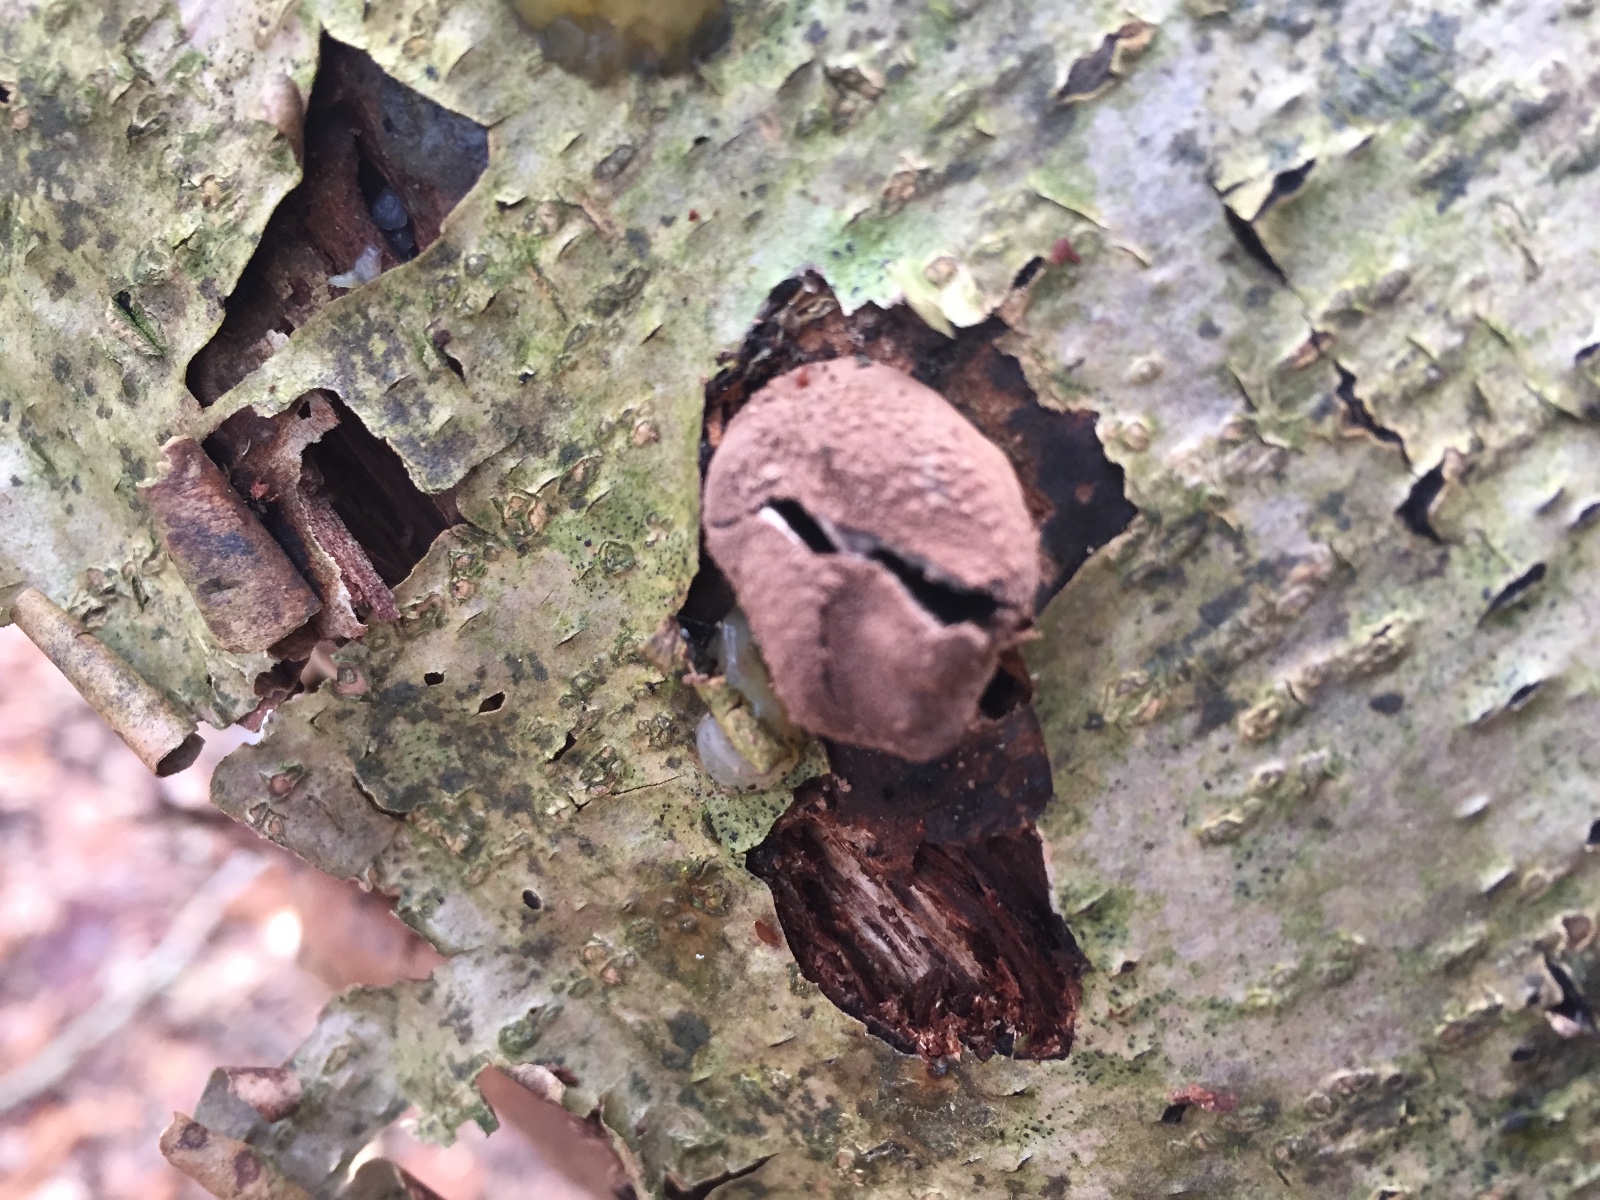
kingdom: Fungi
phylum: Ascomycota
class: Leotiomycetes
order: Helotiales
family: Cenangiaceae
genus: Encoelia
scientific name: Encoelia furfuracea
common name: hassel-læderskive
